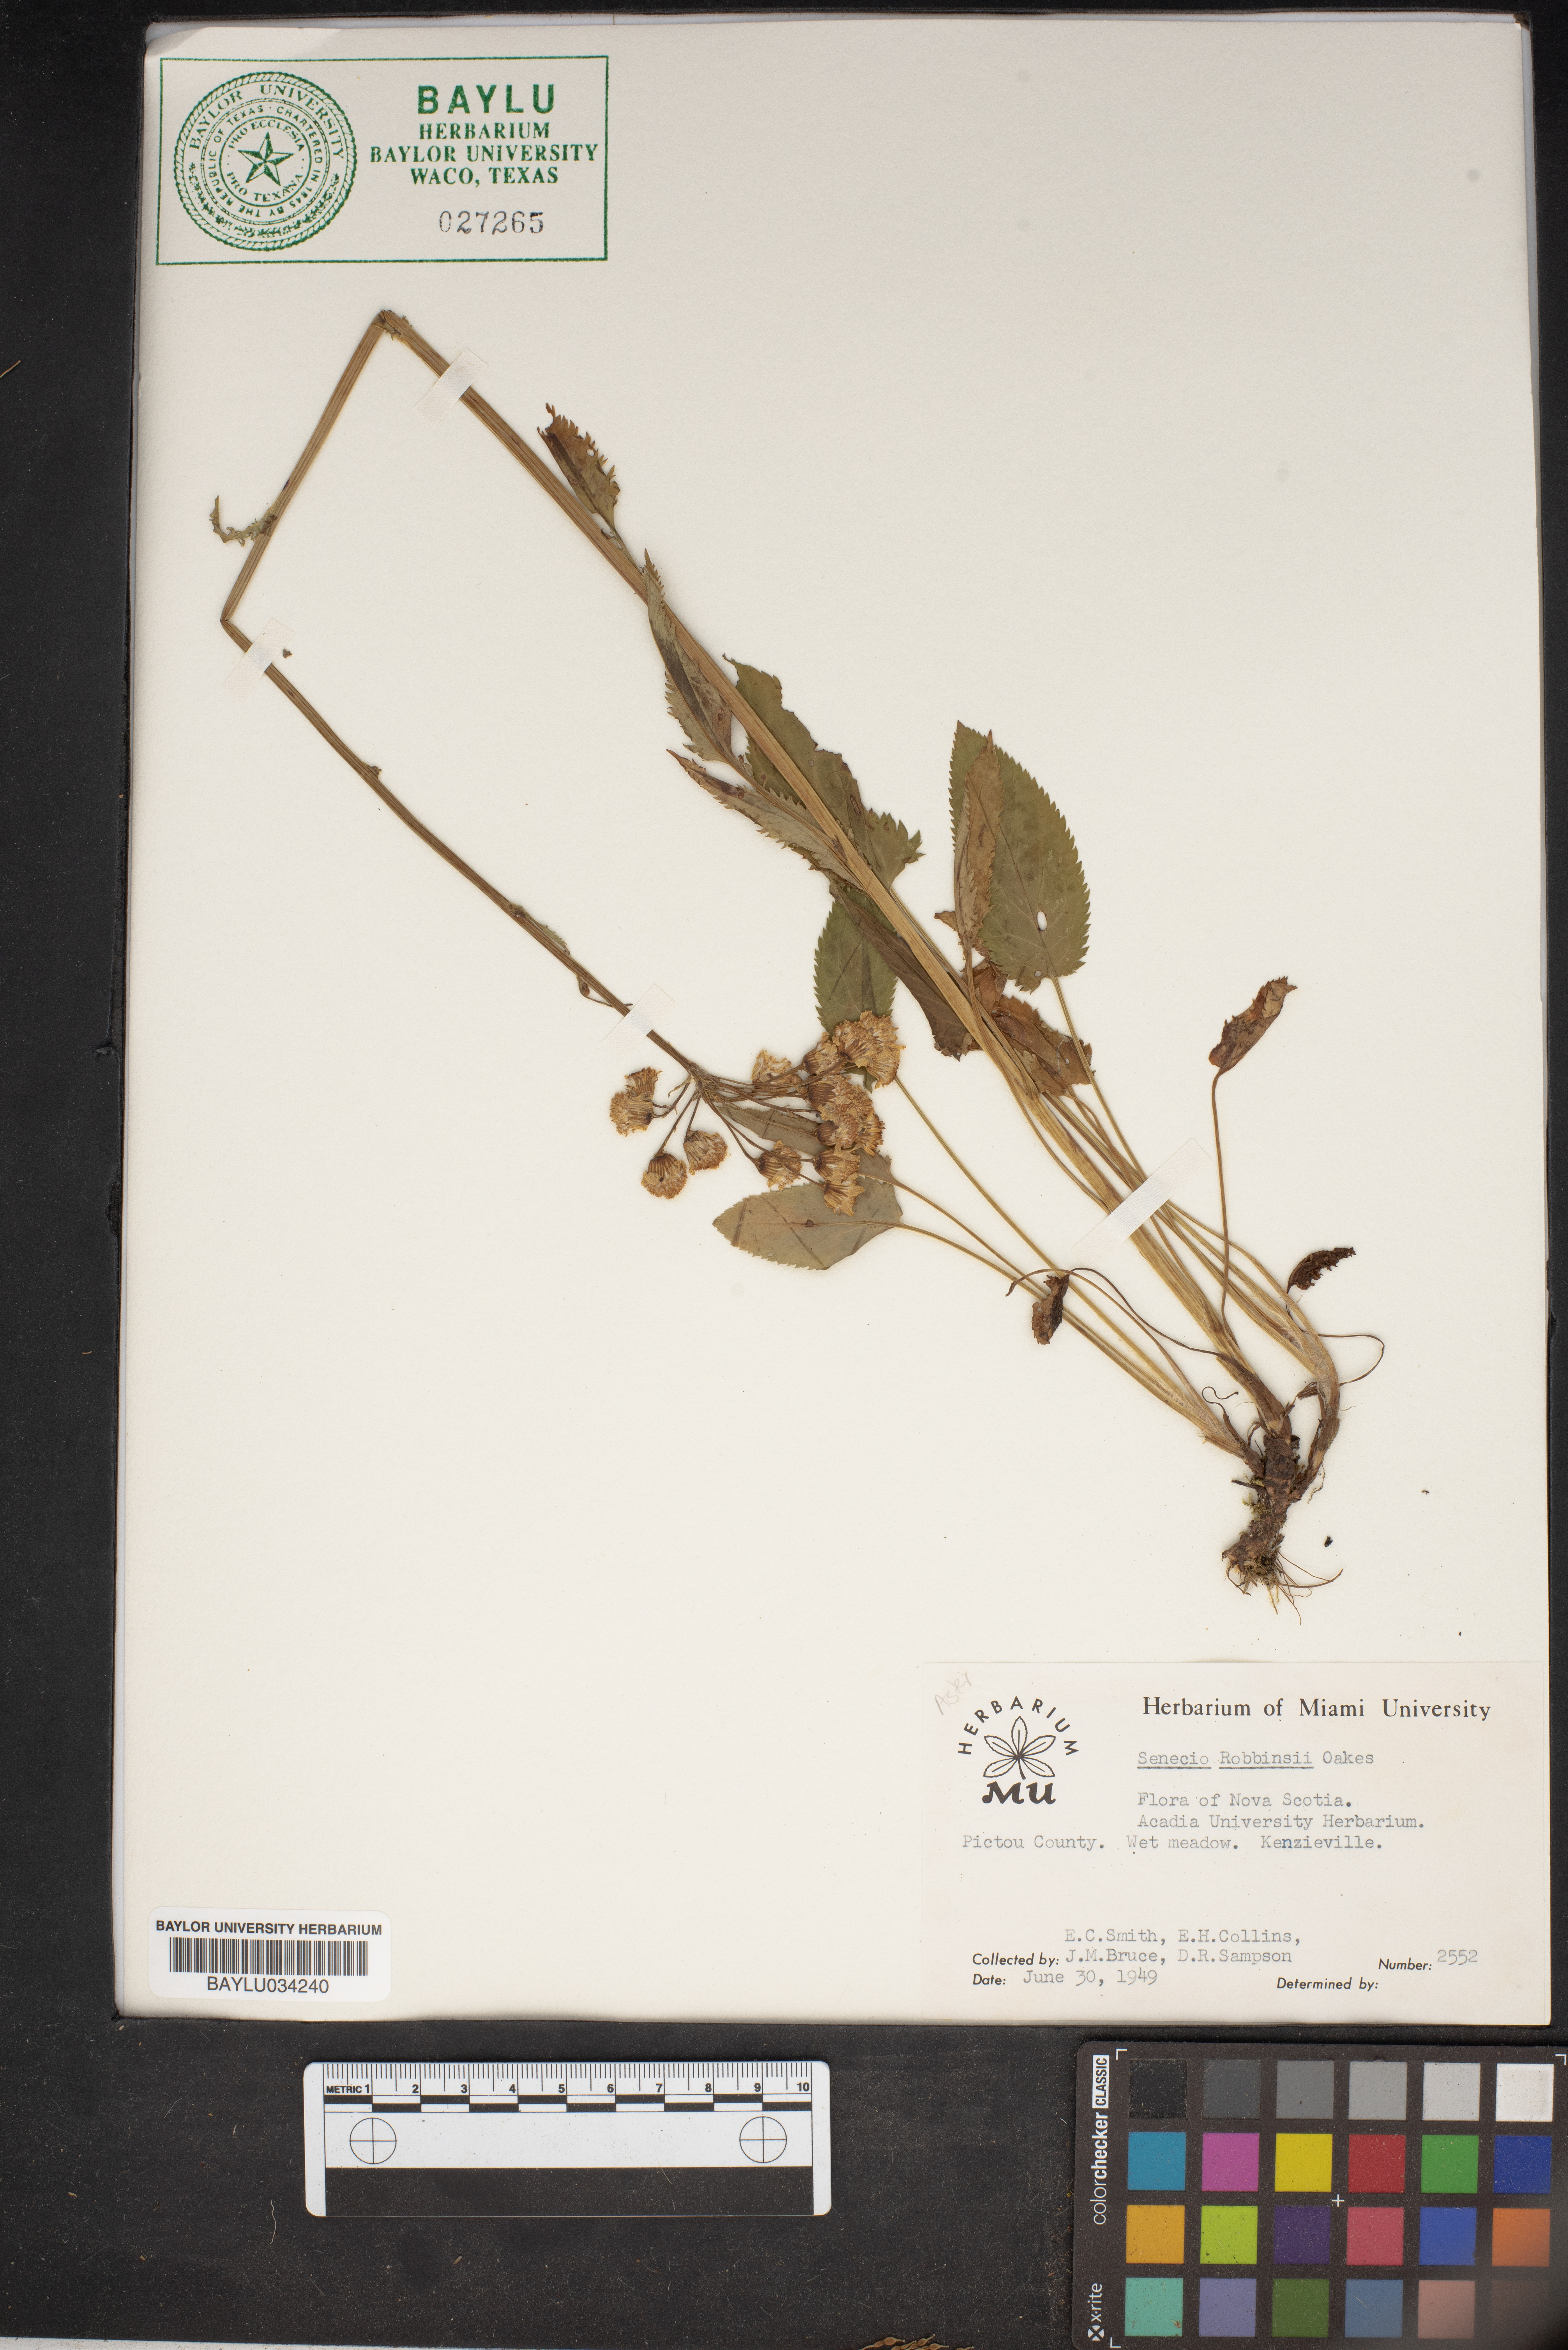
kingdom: Plantae
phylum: Tracheophyta
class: Magnoliopsida
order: Asterales
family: Asteraceae
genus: Packera
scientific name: Packera schweinitziana
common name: Schweinitz's ragwort
